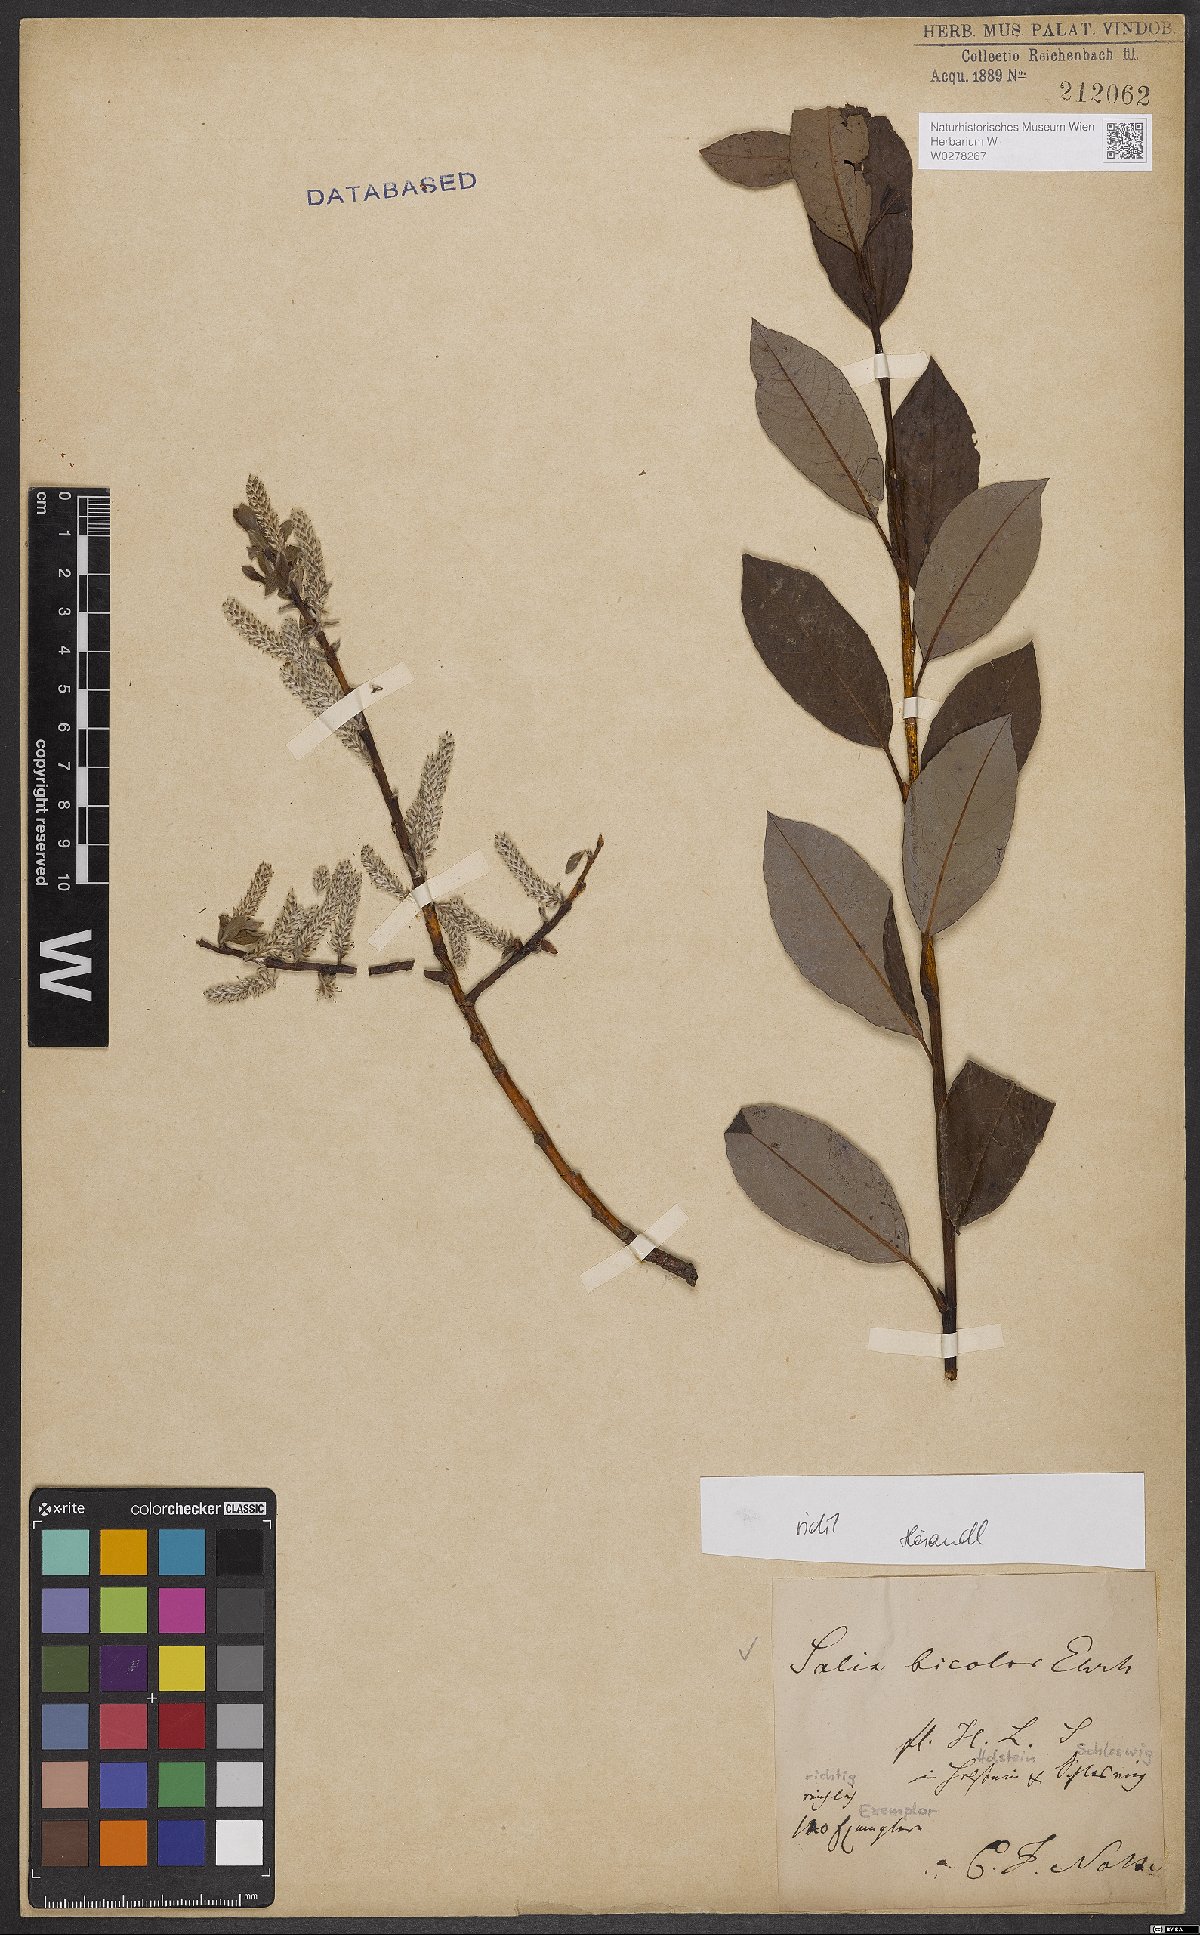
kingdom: Plantae
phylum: Tracheophyta
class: Magnoliopsida
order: Malpighiales
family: Salicaceae
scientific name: Salicaceae
